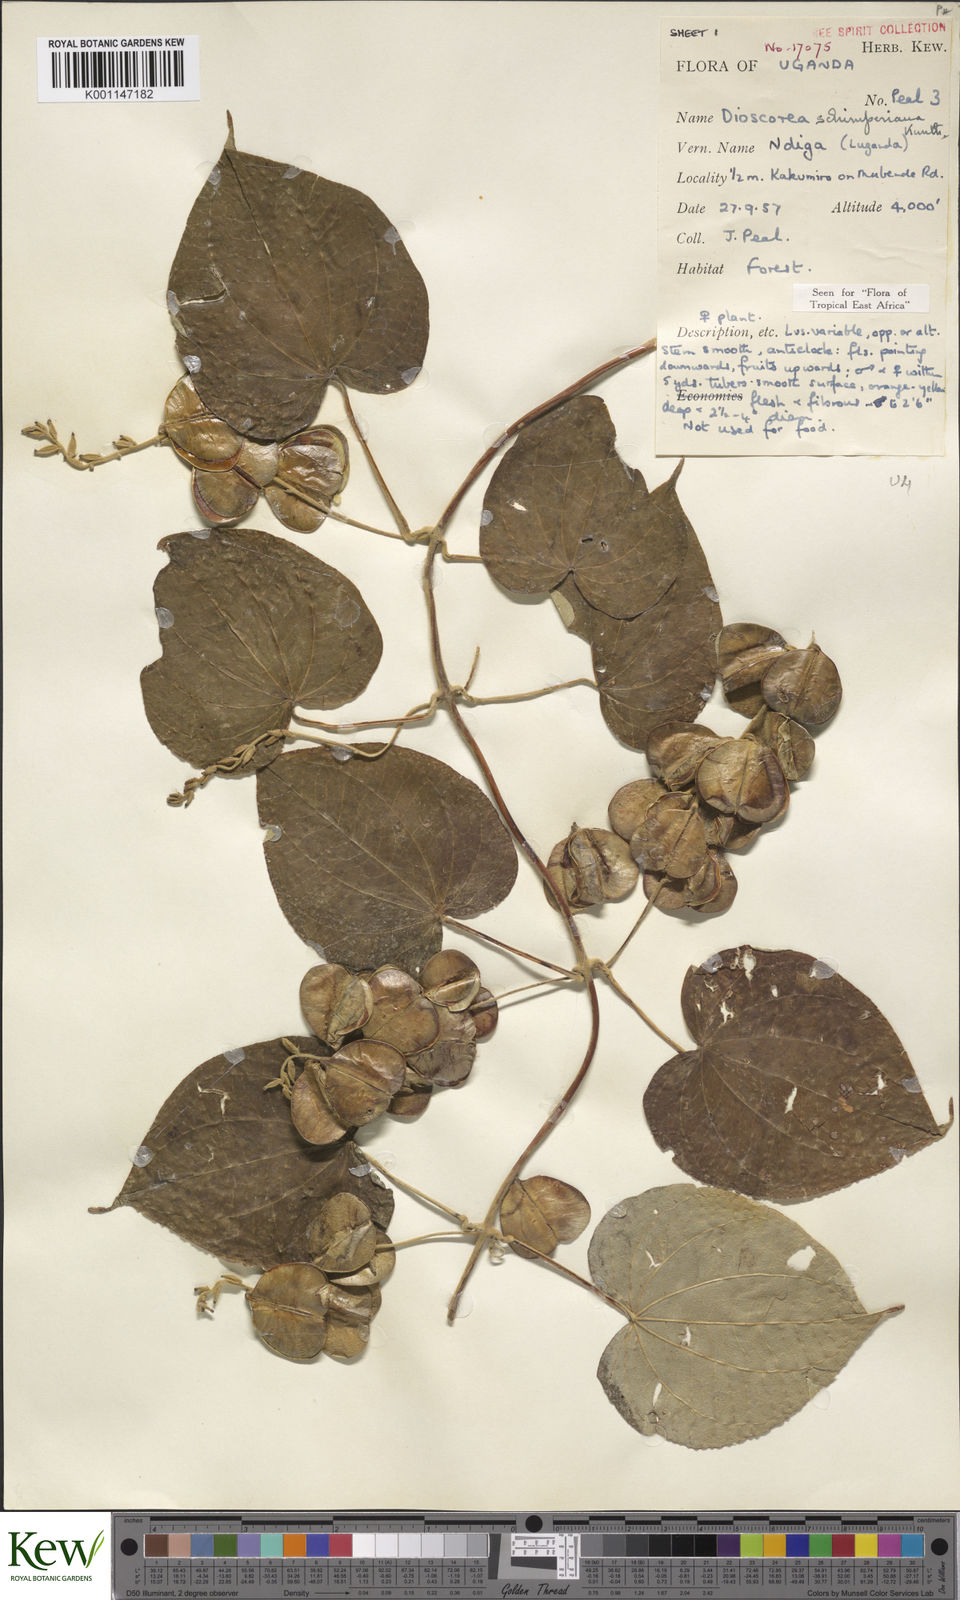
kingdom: Plantae
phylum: Tracheophyta
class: Liliopsida
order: Dioscoreales
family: Dioscoreaceae
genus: Dioscorea
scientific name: Dioscorea schimperiana
